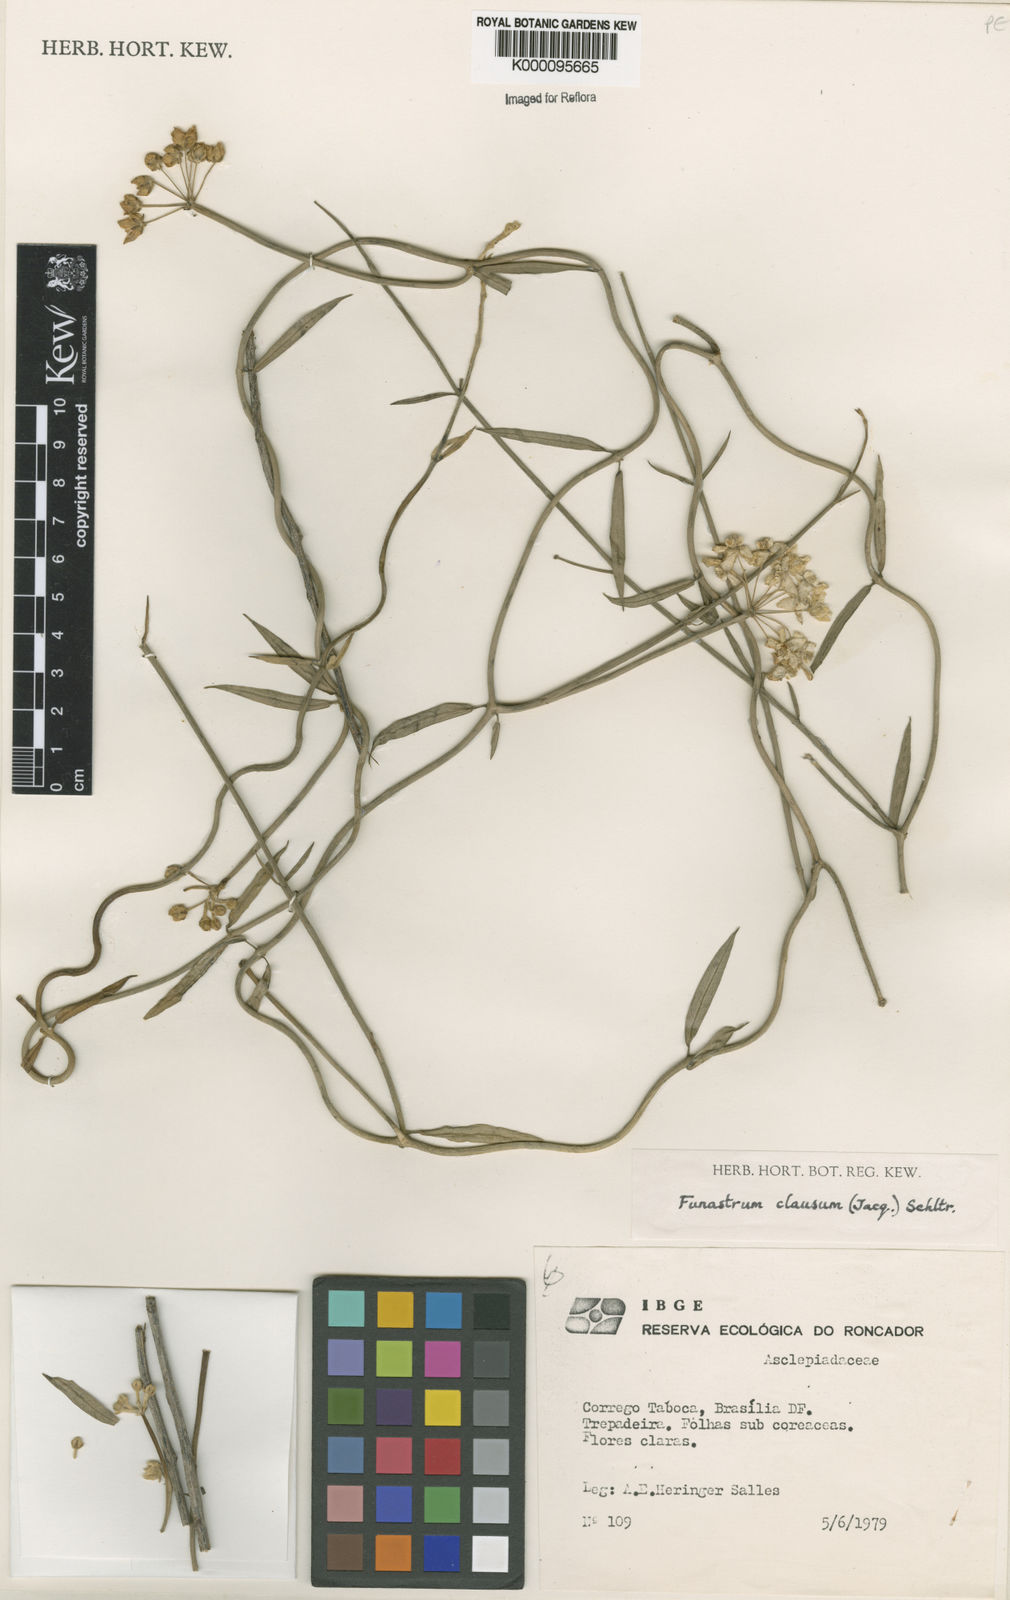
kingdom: Plantae
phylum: Tracheophyta
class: Magnoliopsida
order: Gentianales
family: Apocynaceae
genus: Funastrum
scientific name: Funastrum clausum
